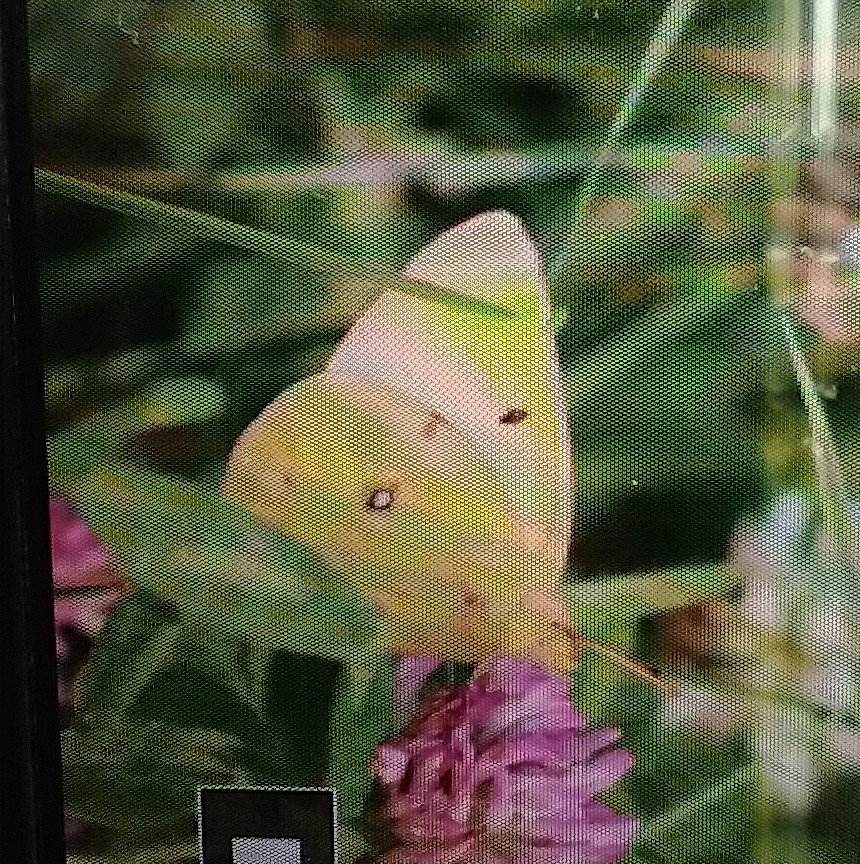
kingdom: Animalia
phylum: Arthropoda
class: Insecta
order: Lepidoptera
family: Pieridae
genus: Colias
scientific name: Colias philodice
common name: Clouded Sulphur
